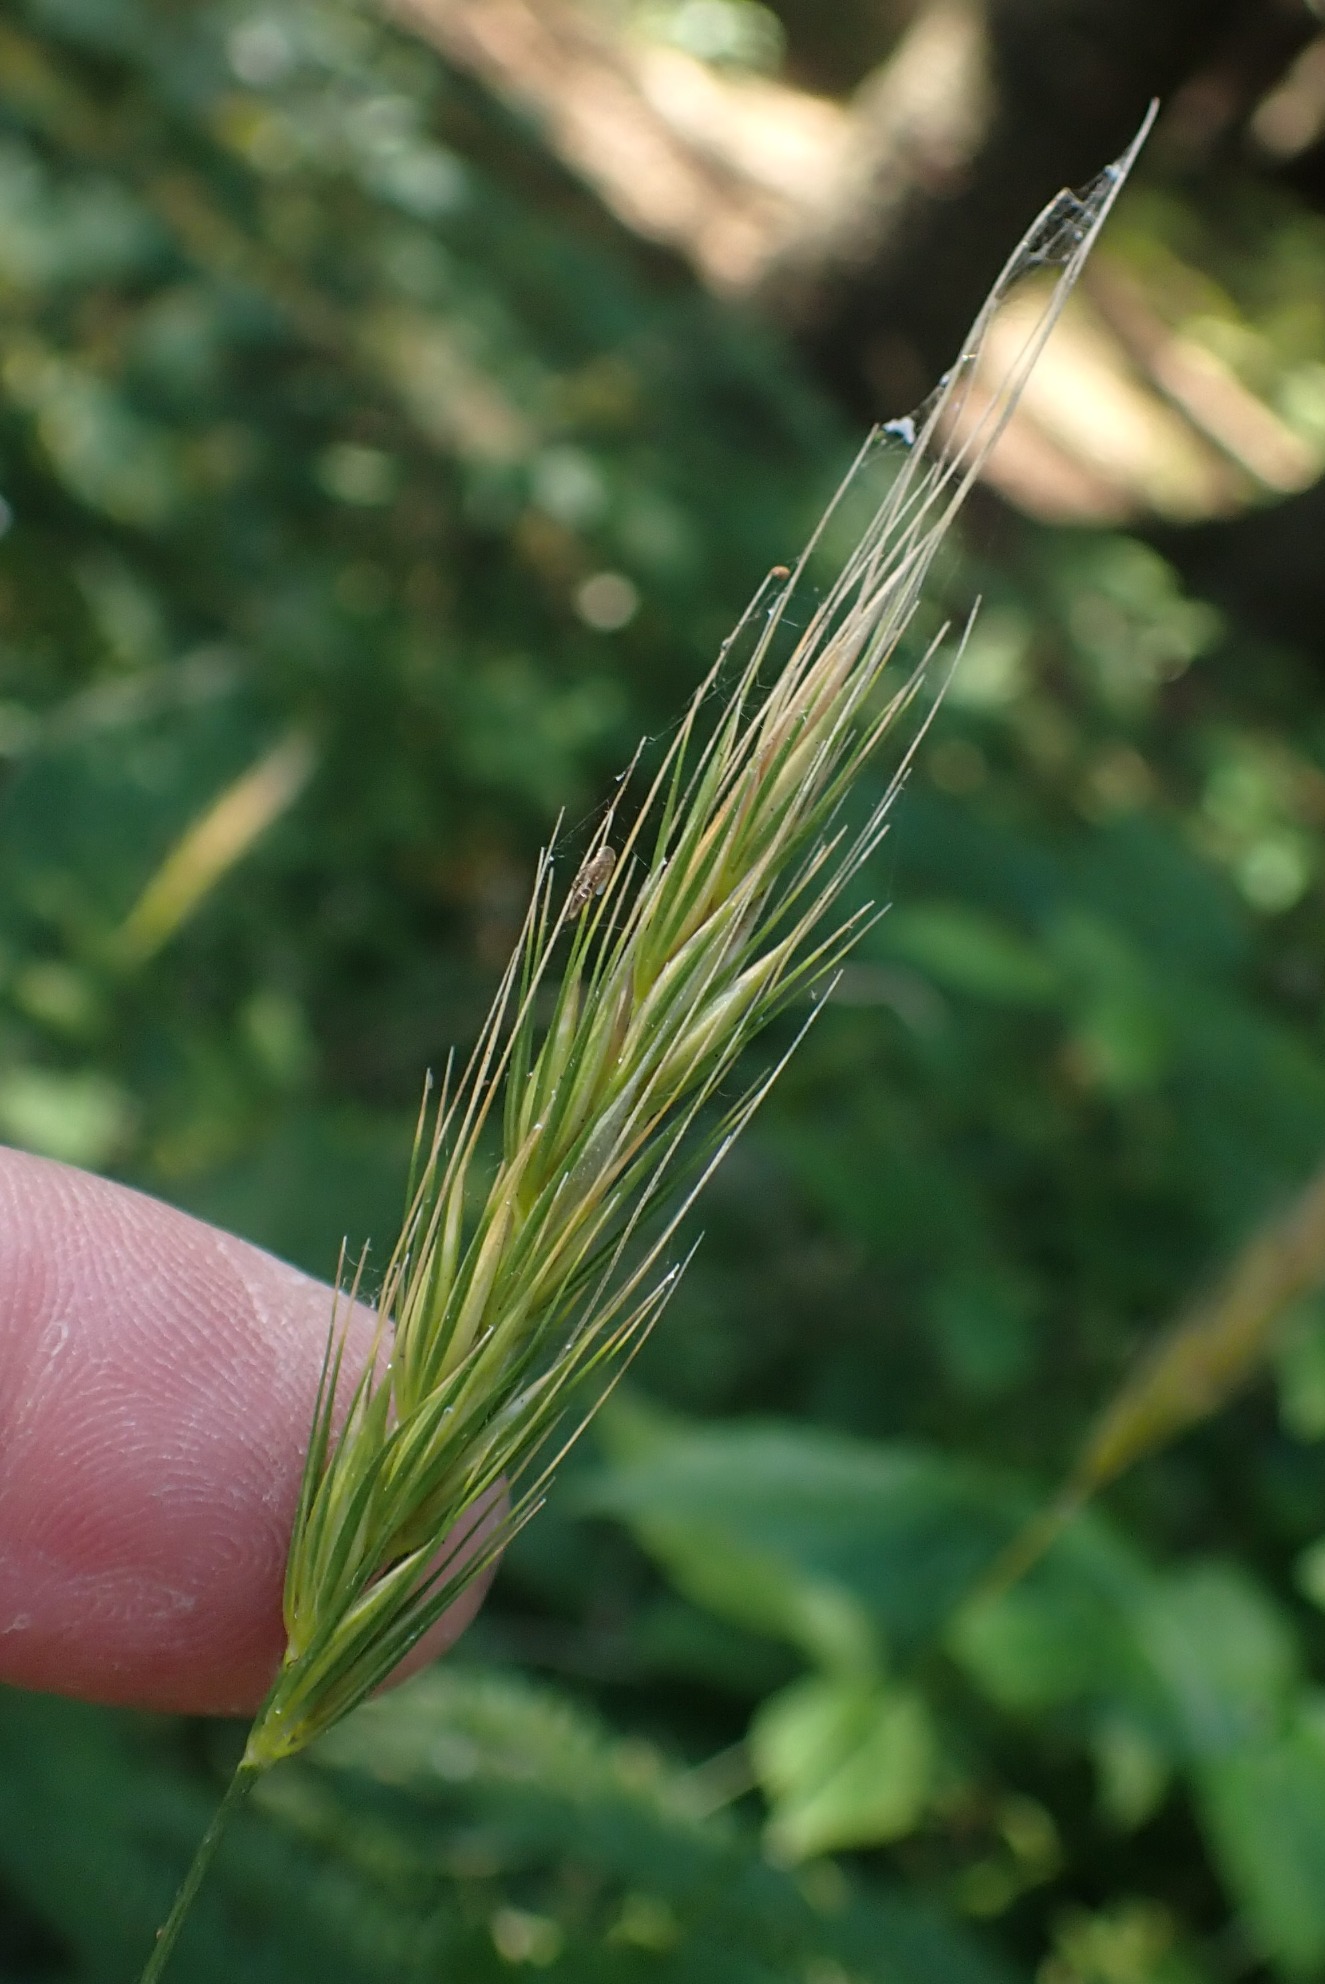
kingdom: Plantae
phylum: Tracheophyta
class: Liliopsida
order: Poales
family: Poaceae
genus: Hordelymus
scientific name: Hordelymus europaeus
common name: Skovbyg
